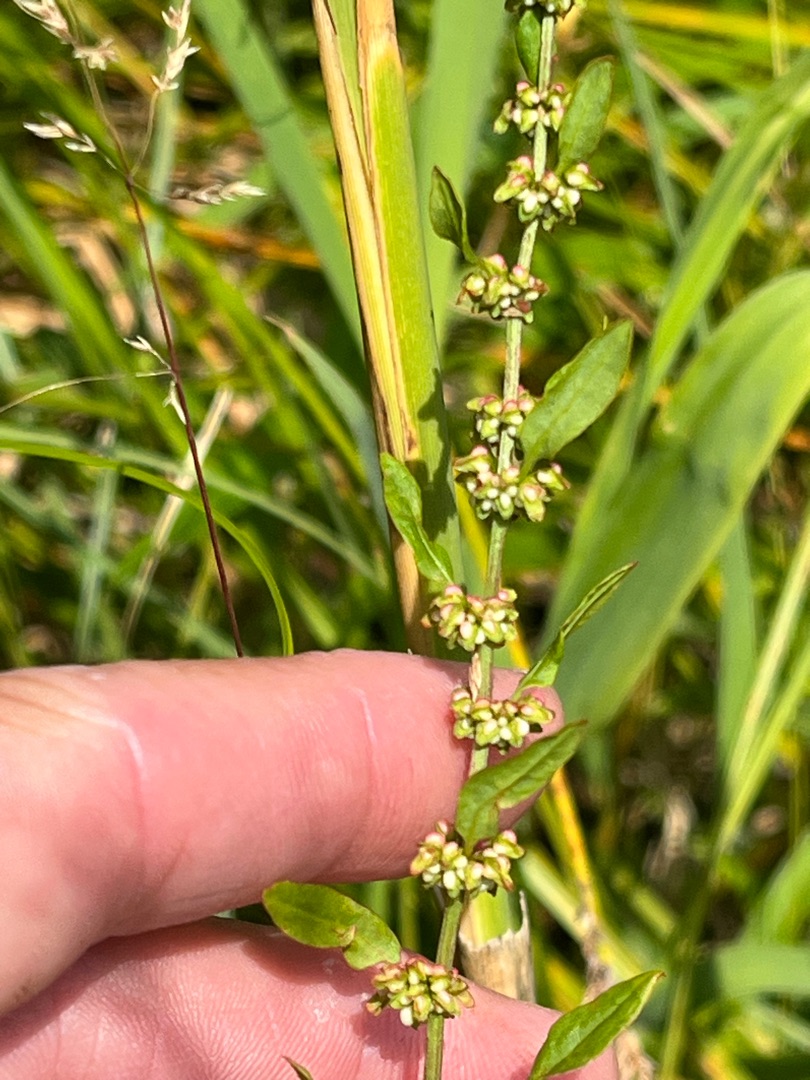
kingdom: Plantae
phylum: Tracheophyta
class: Magnoliopsida
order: Caryophyllales
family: Polygonaceae
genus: Rumex
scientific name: Rumex conglomeratus
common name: Nøgle-skræppe
